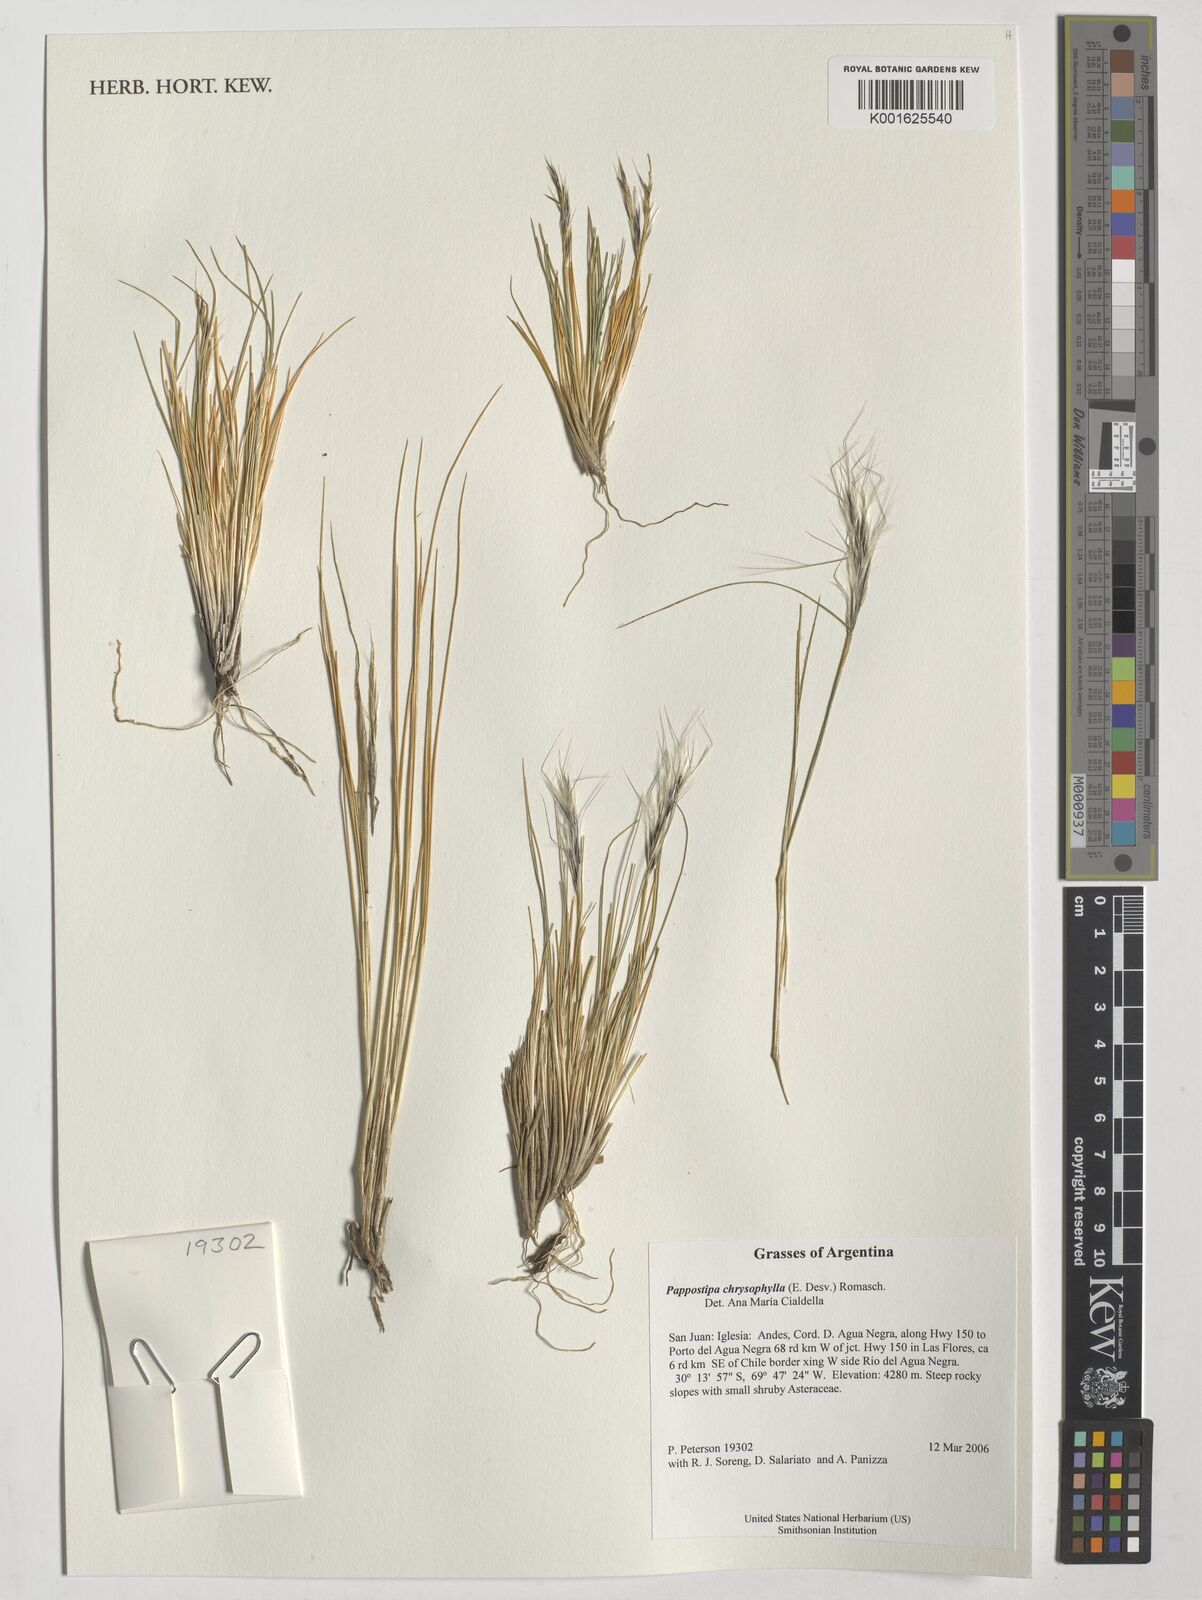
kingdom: Plantae
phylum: Tracheophyta
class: Liliopsida
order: Poales
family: Poaceae
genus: Pappostipa
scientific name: Pappostipa chrysophylla
